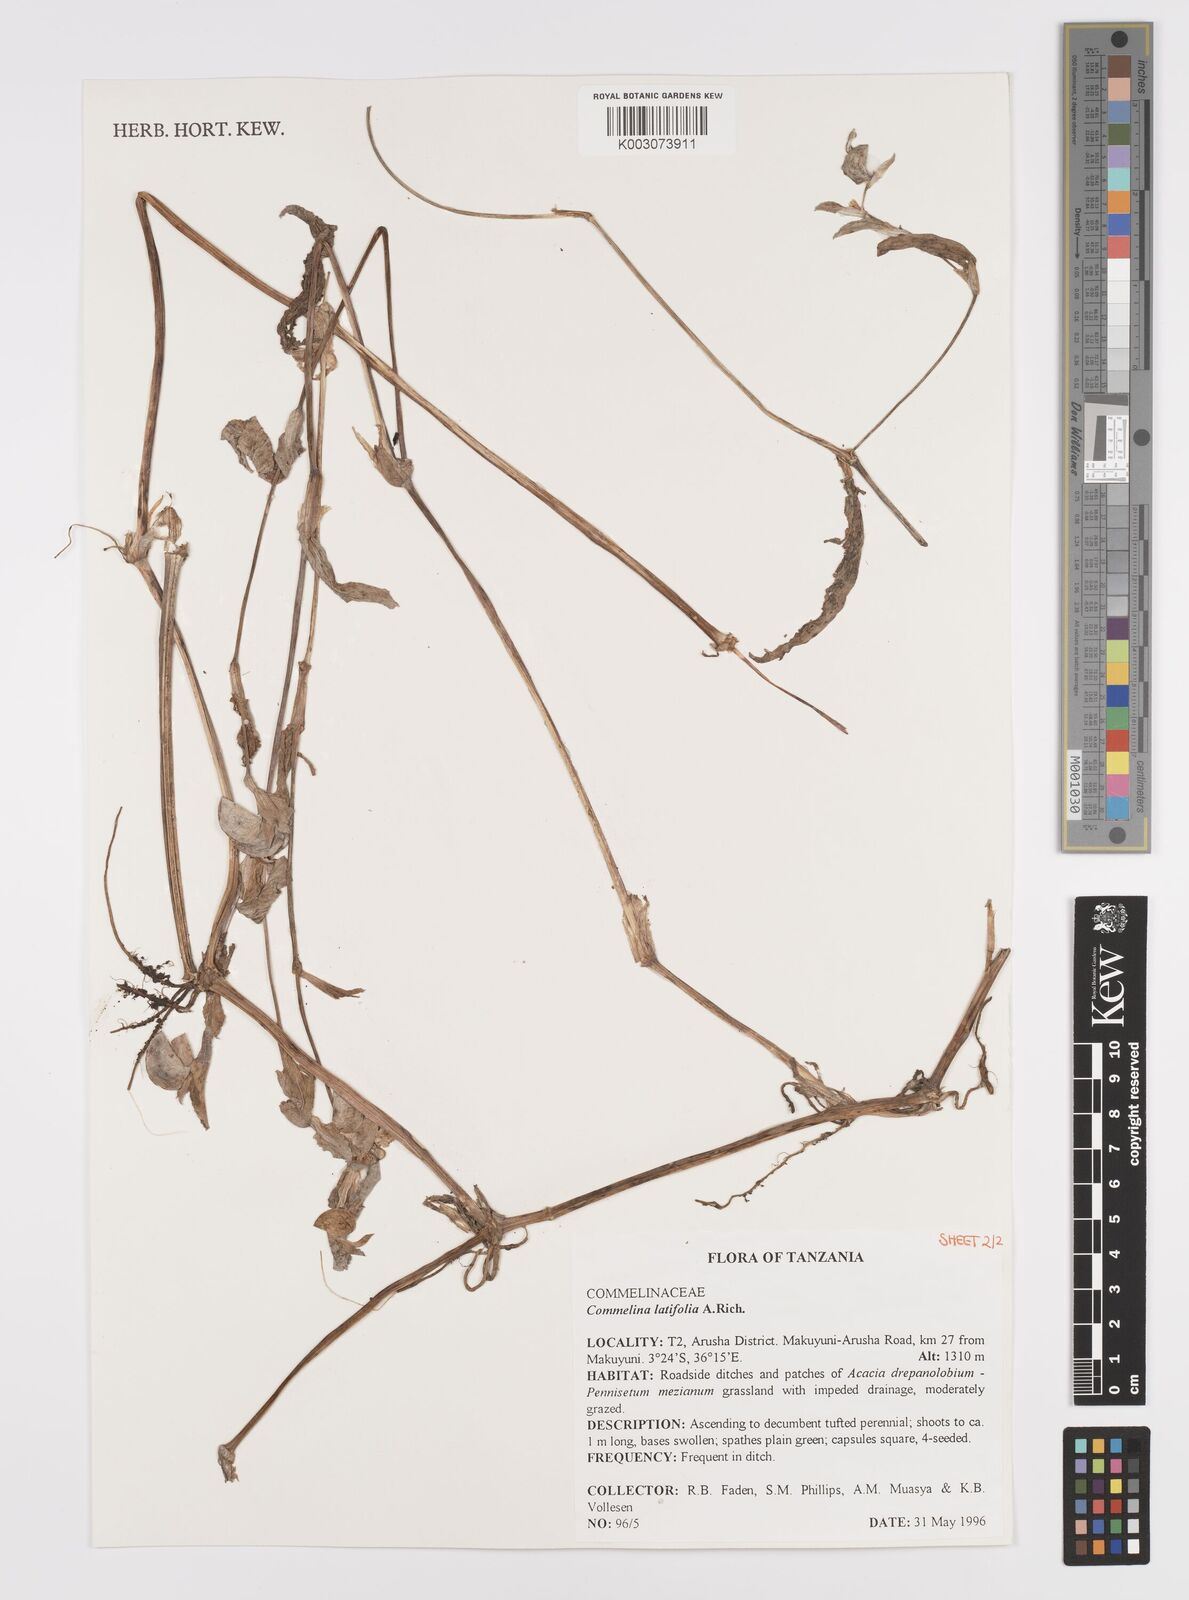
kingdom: Plantae
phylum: Tracheophyta
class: Liliopsida
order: Commelinales
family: Commelinaceae
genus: Commelina
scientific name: Commelina latifolia
